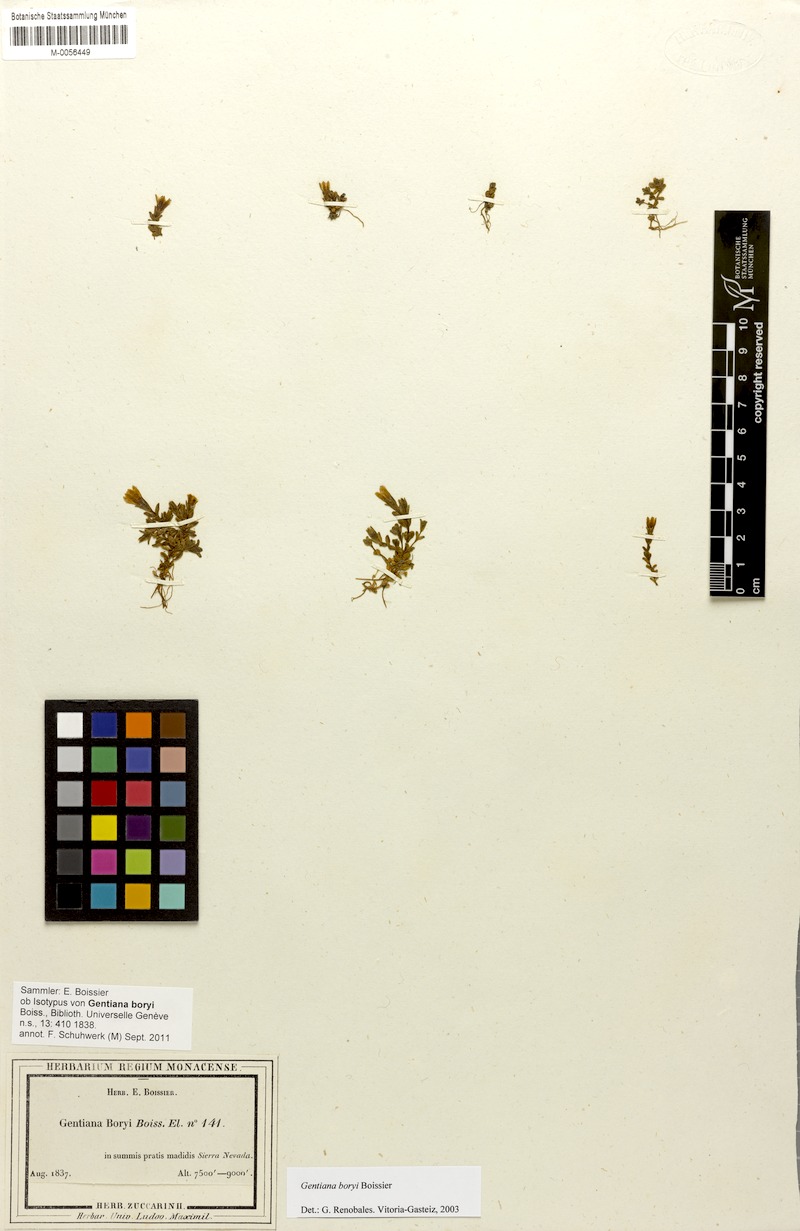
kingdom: Plantae
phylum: Tracheophyta
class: Magnoliopsida
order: Gentianales
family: Gentianaceae
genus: Gentiana
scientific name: Gentiana boryi
